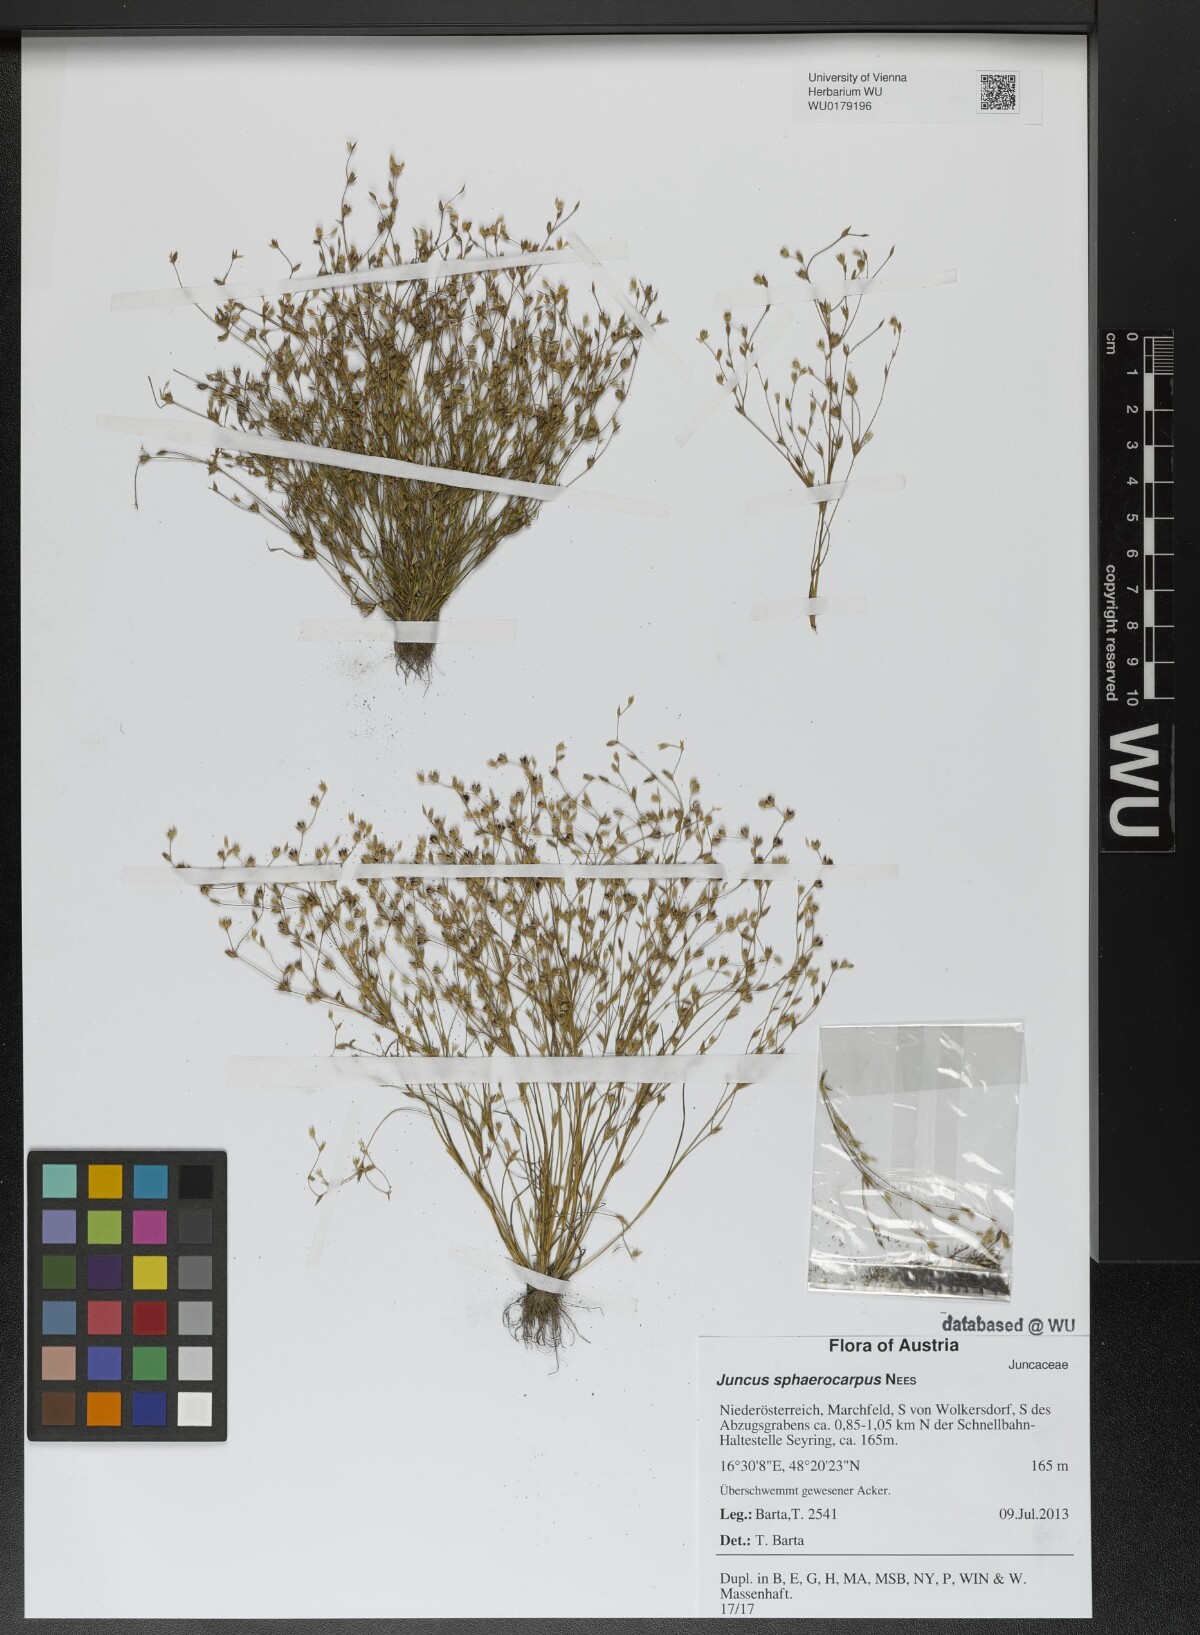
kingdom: Plantae
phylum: Tracheophyta
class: Liliopsida
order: Poales
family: Juncaceae
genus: Juncus
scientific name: Juncus sphaerocarpus
